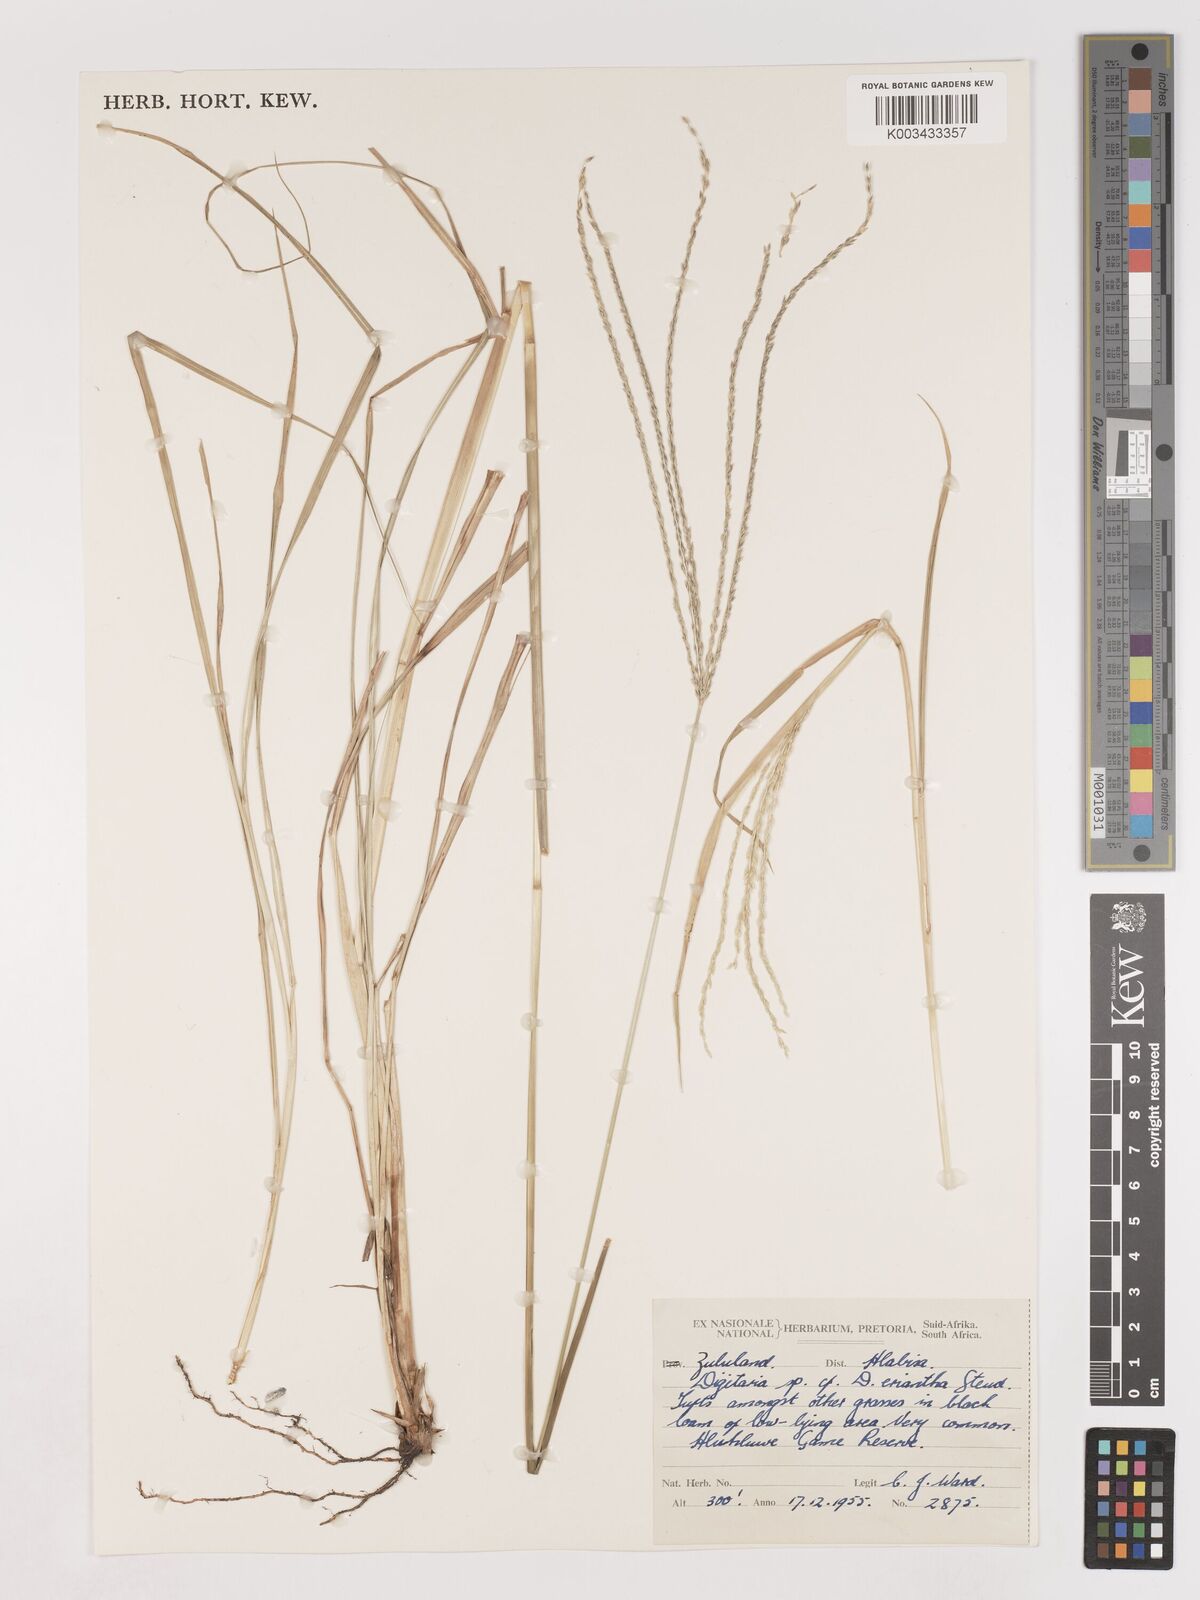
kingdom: Plantae
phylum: Tracheophyta
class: Liliopsida
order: Poales
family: Poaceae
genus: Digitaria
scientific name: Digitaria eriantha
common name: Digitgrass
